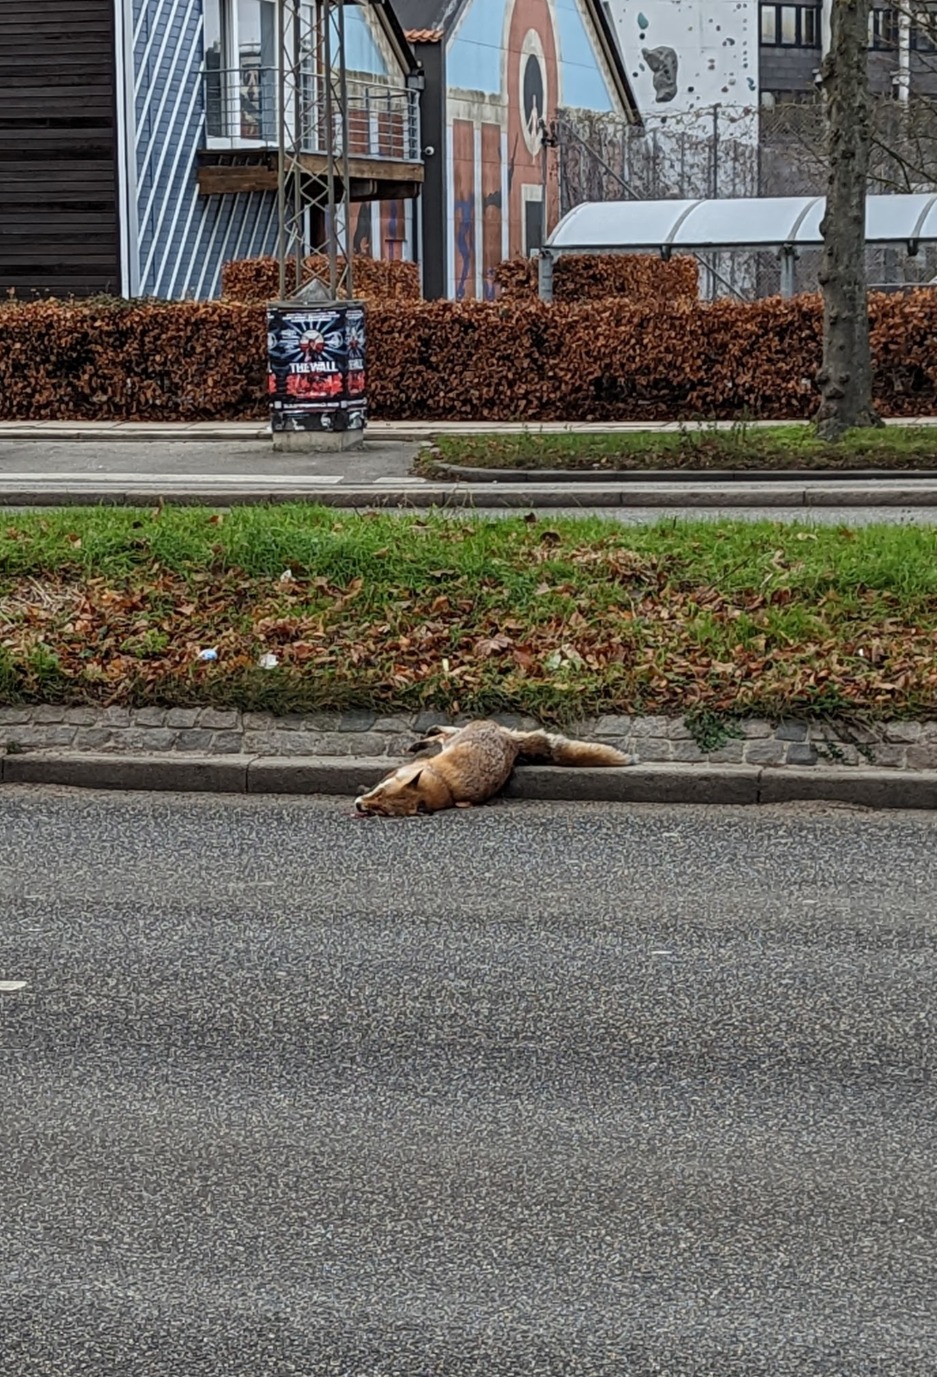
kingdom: Animalia
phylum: Chordata
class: Mammalia
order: Carnivora
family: Canidae
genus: Vulpes
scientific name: Vulpes vulpes
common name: Ræv
